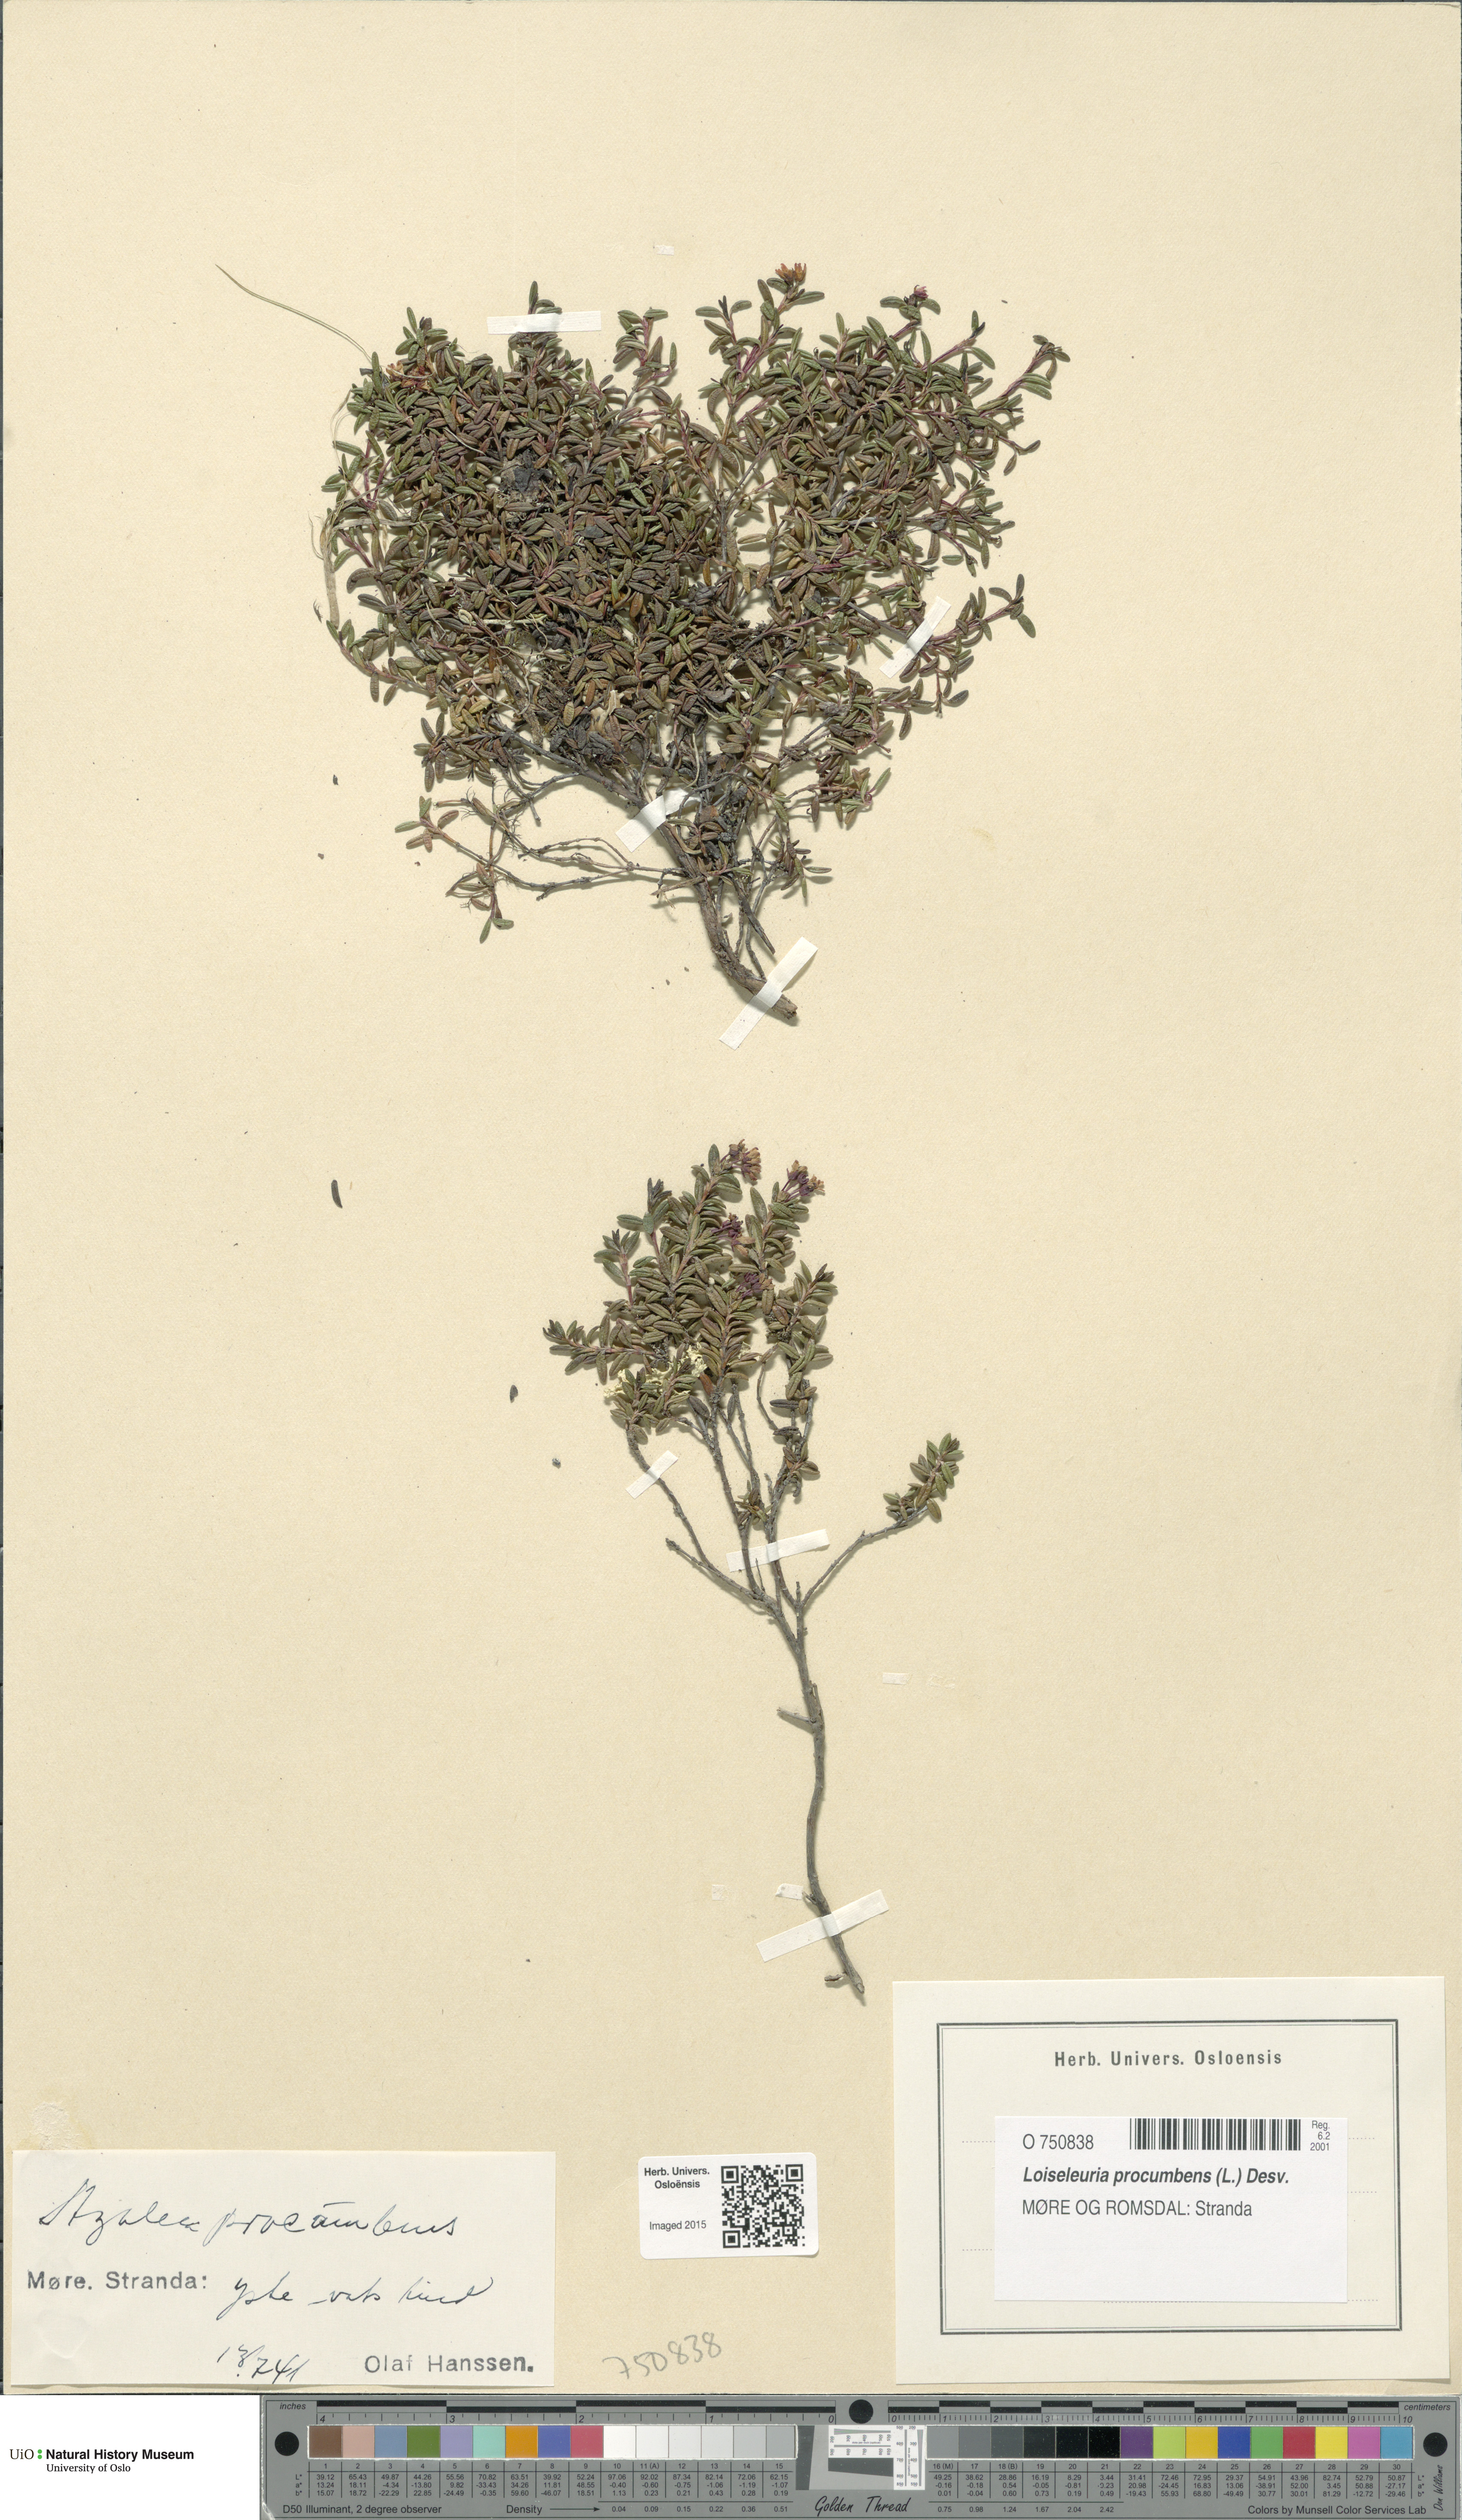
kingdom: Plantae
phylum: Tracheophyta
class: Magnoliopsida
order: Ericales
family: Ericaceae
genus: Kalmia
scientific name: Kalmia procumbens
